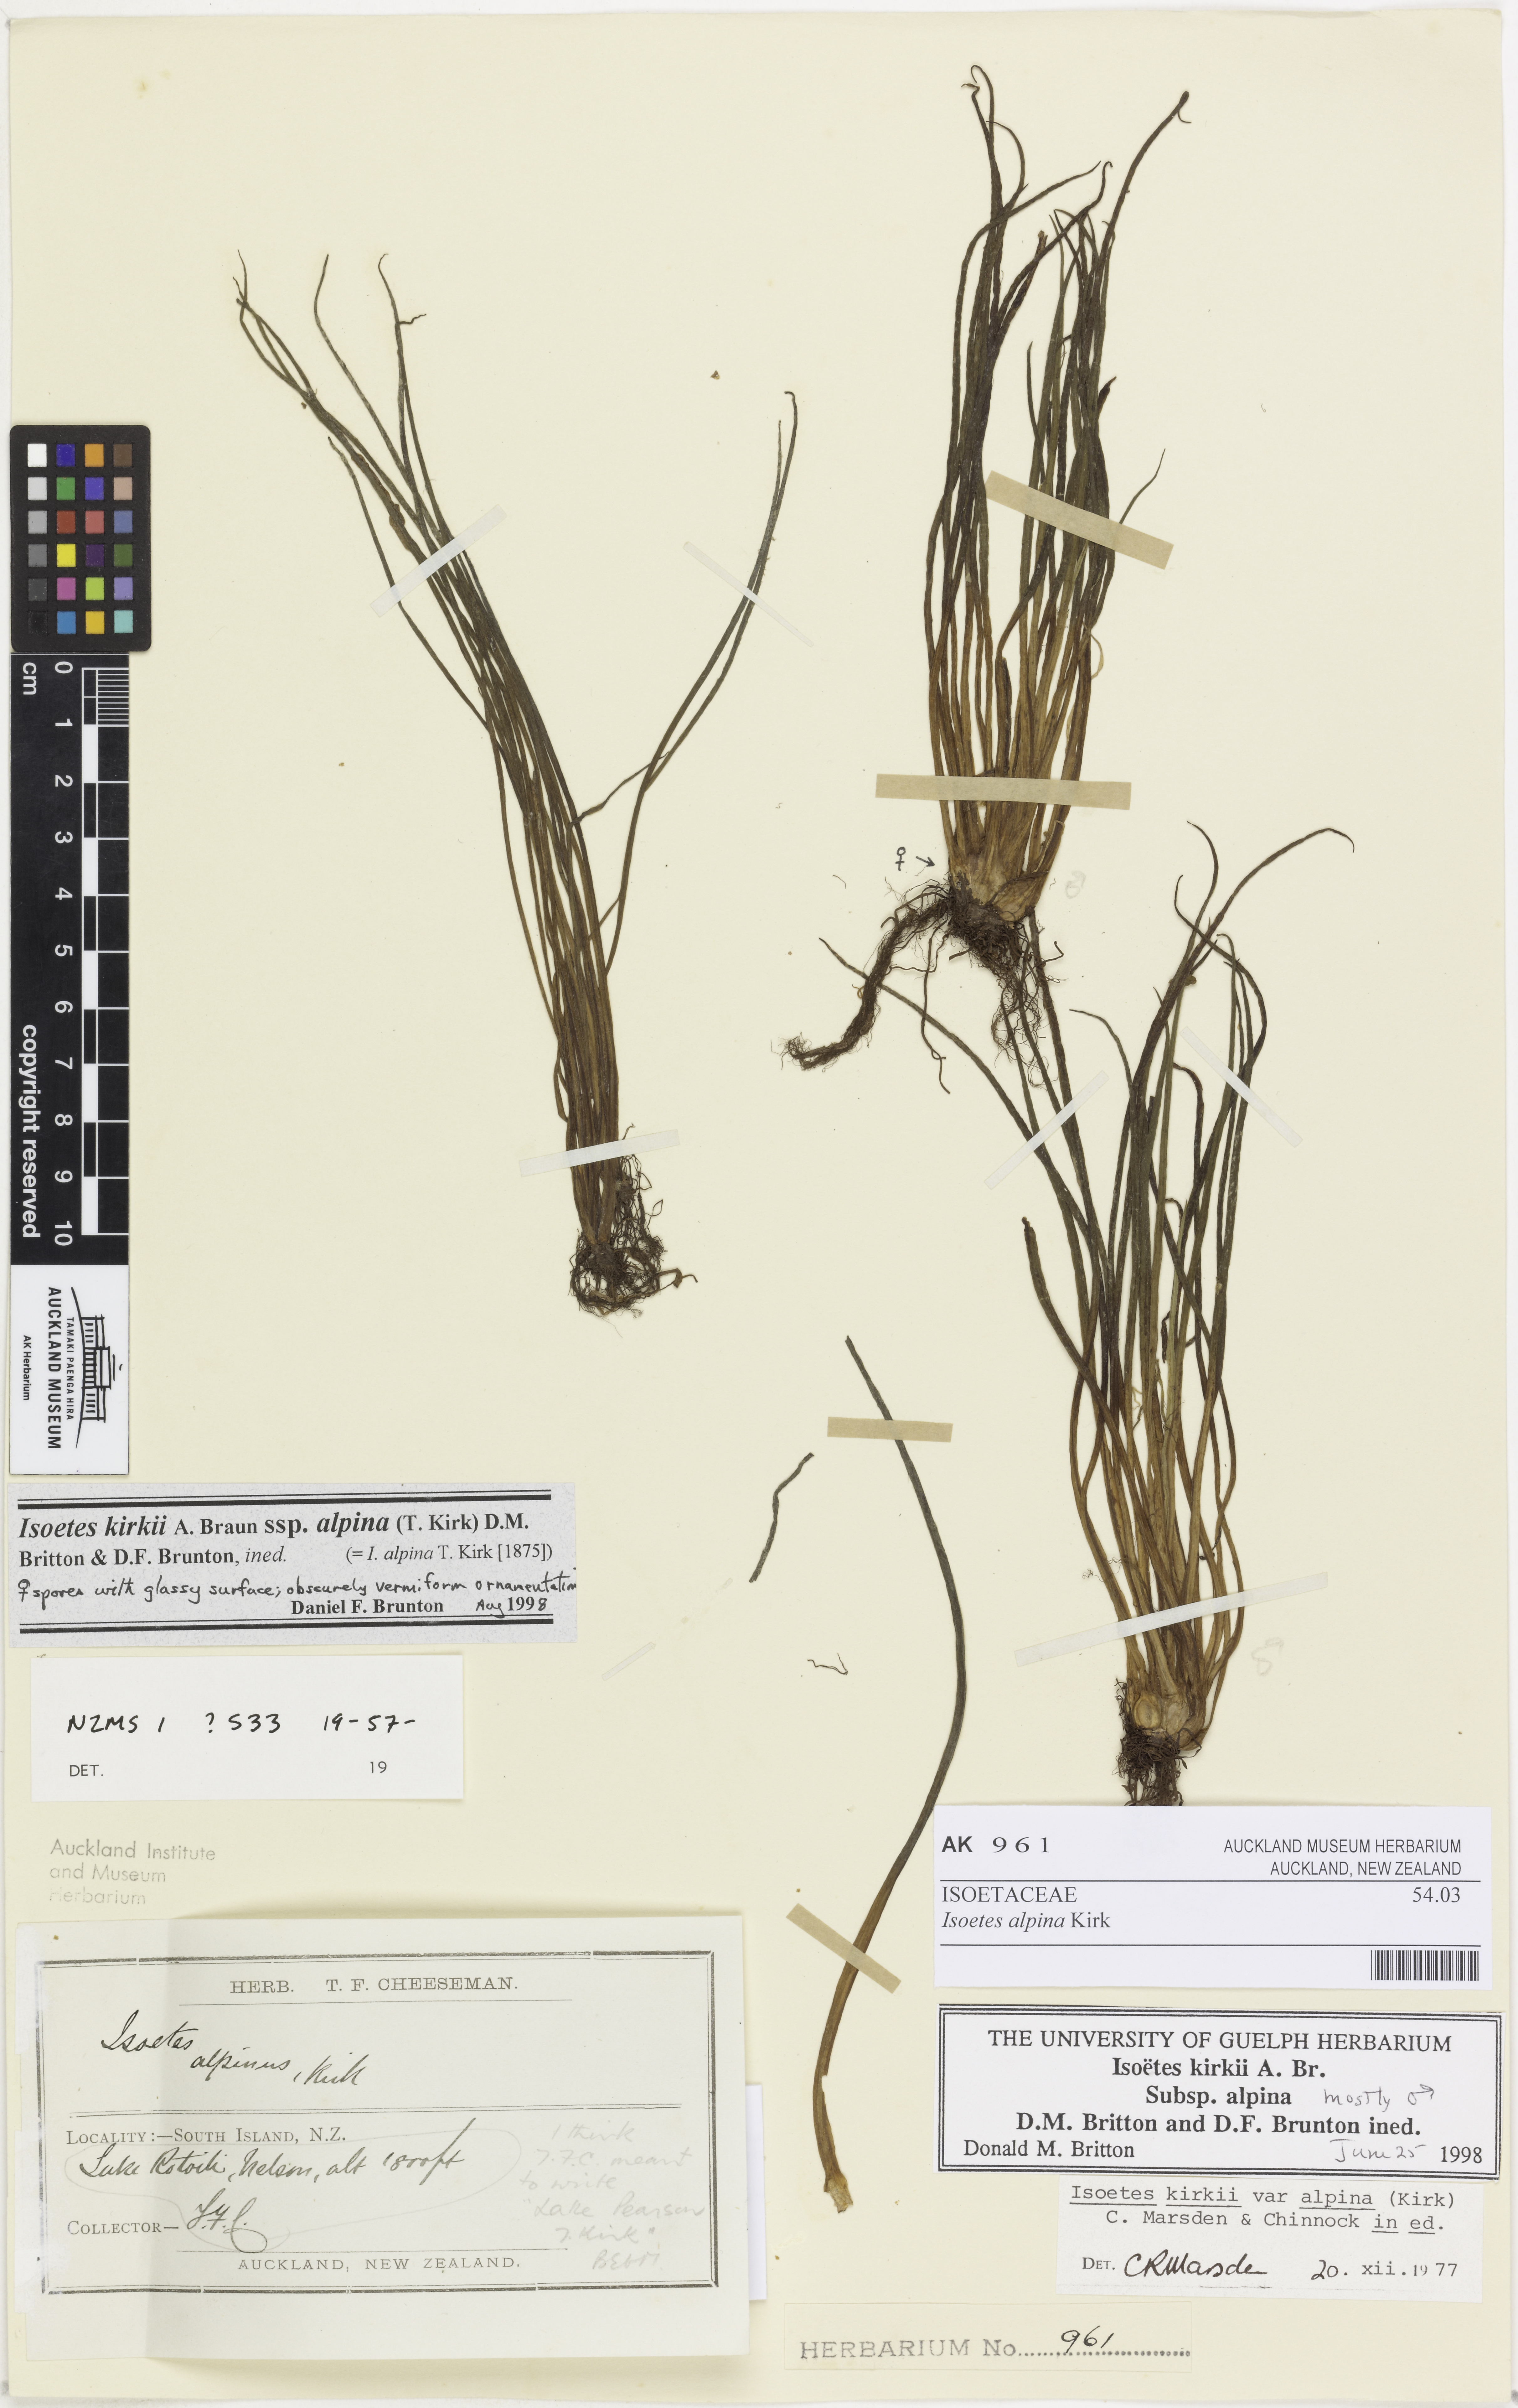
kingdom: Plantae
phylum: Tracheophyta
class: Lycopodiopsida
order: Isoetales
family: Isoetaceae
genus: Isoetes
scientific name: Isoetes alpina
